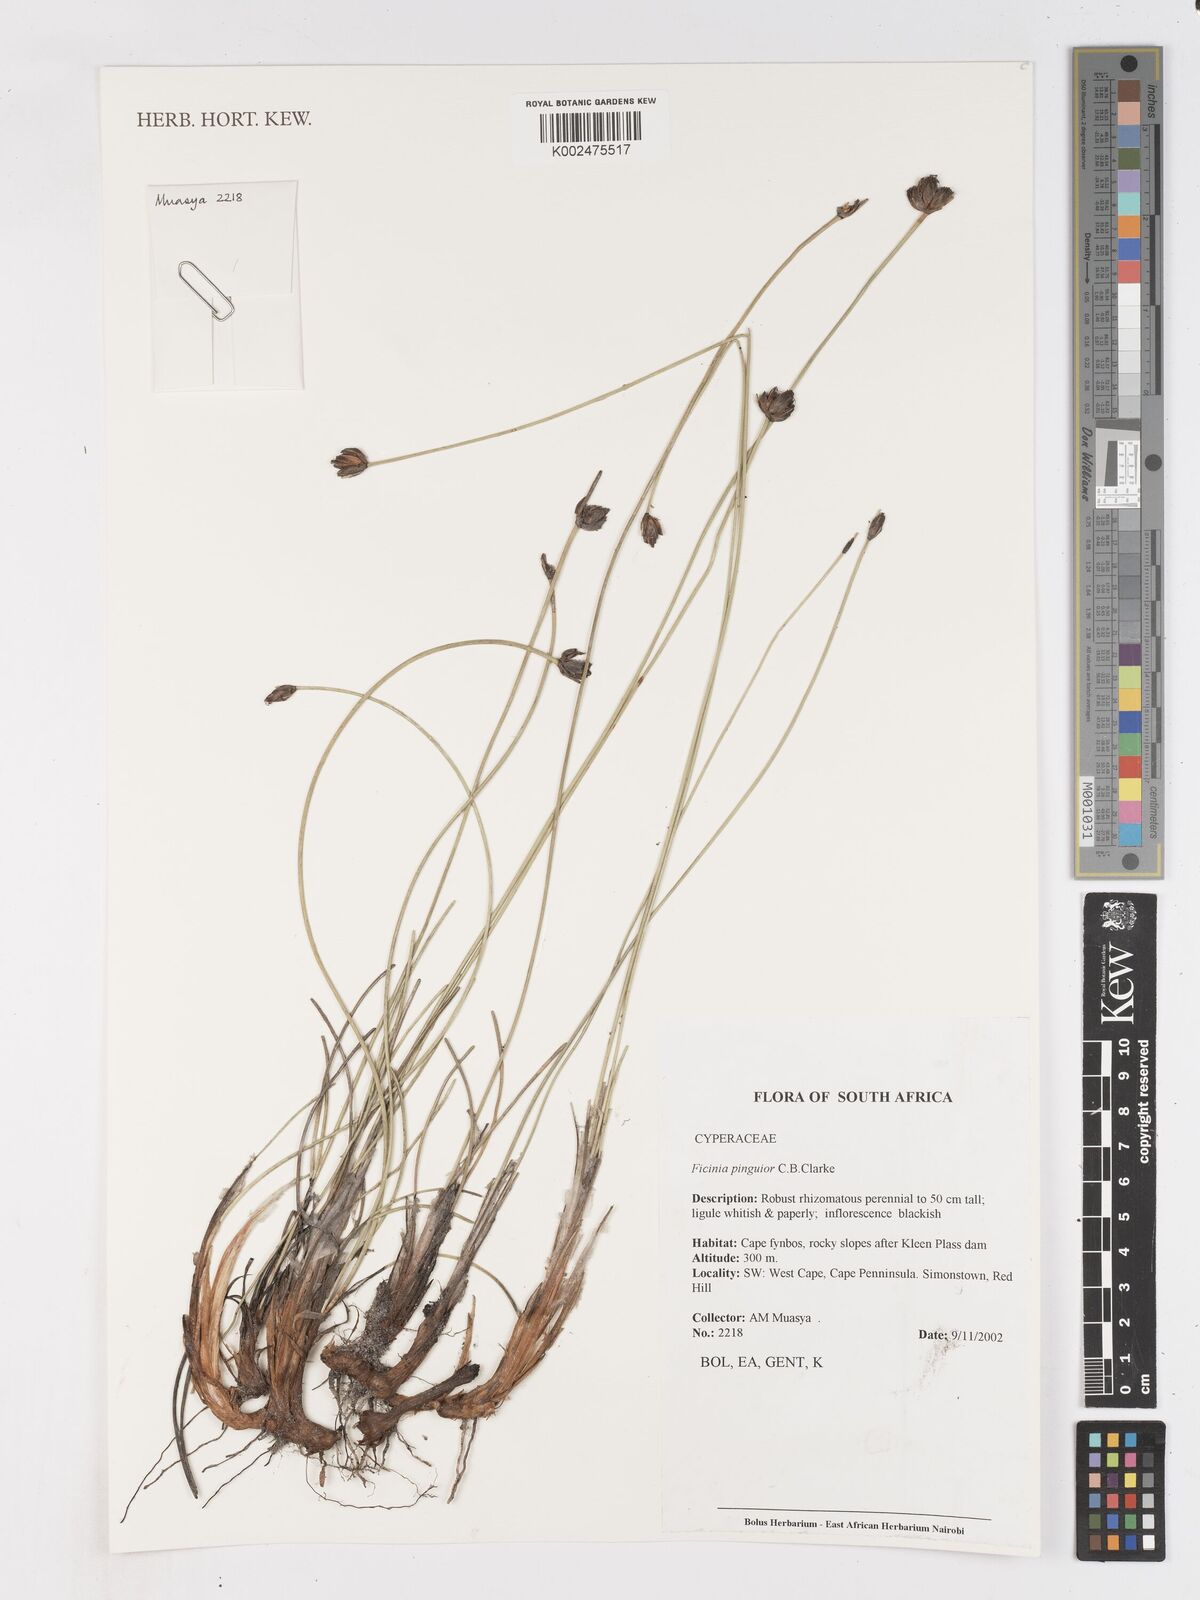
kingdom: Plantae
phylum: Tracheophyta
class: Liliopsida
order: Poales
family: Cyperaceae
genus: Ficinia
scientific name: Ficinia pinguior
